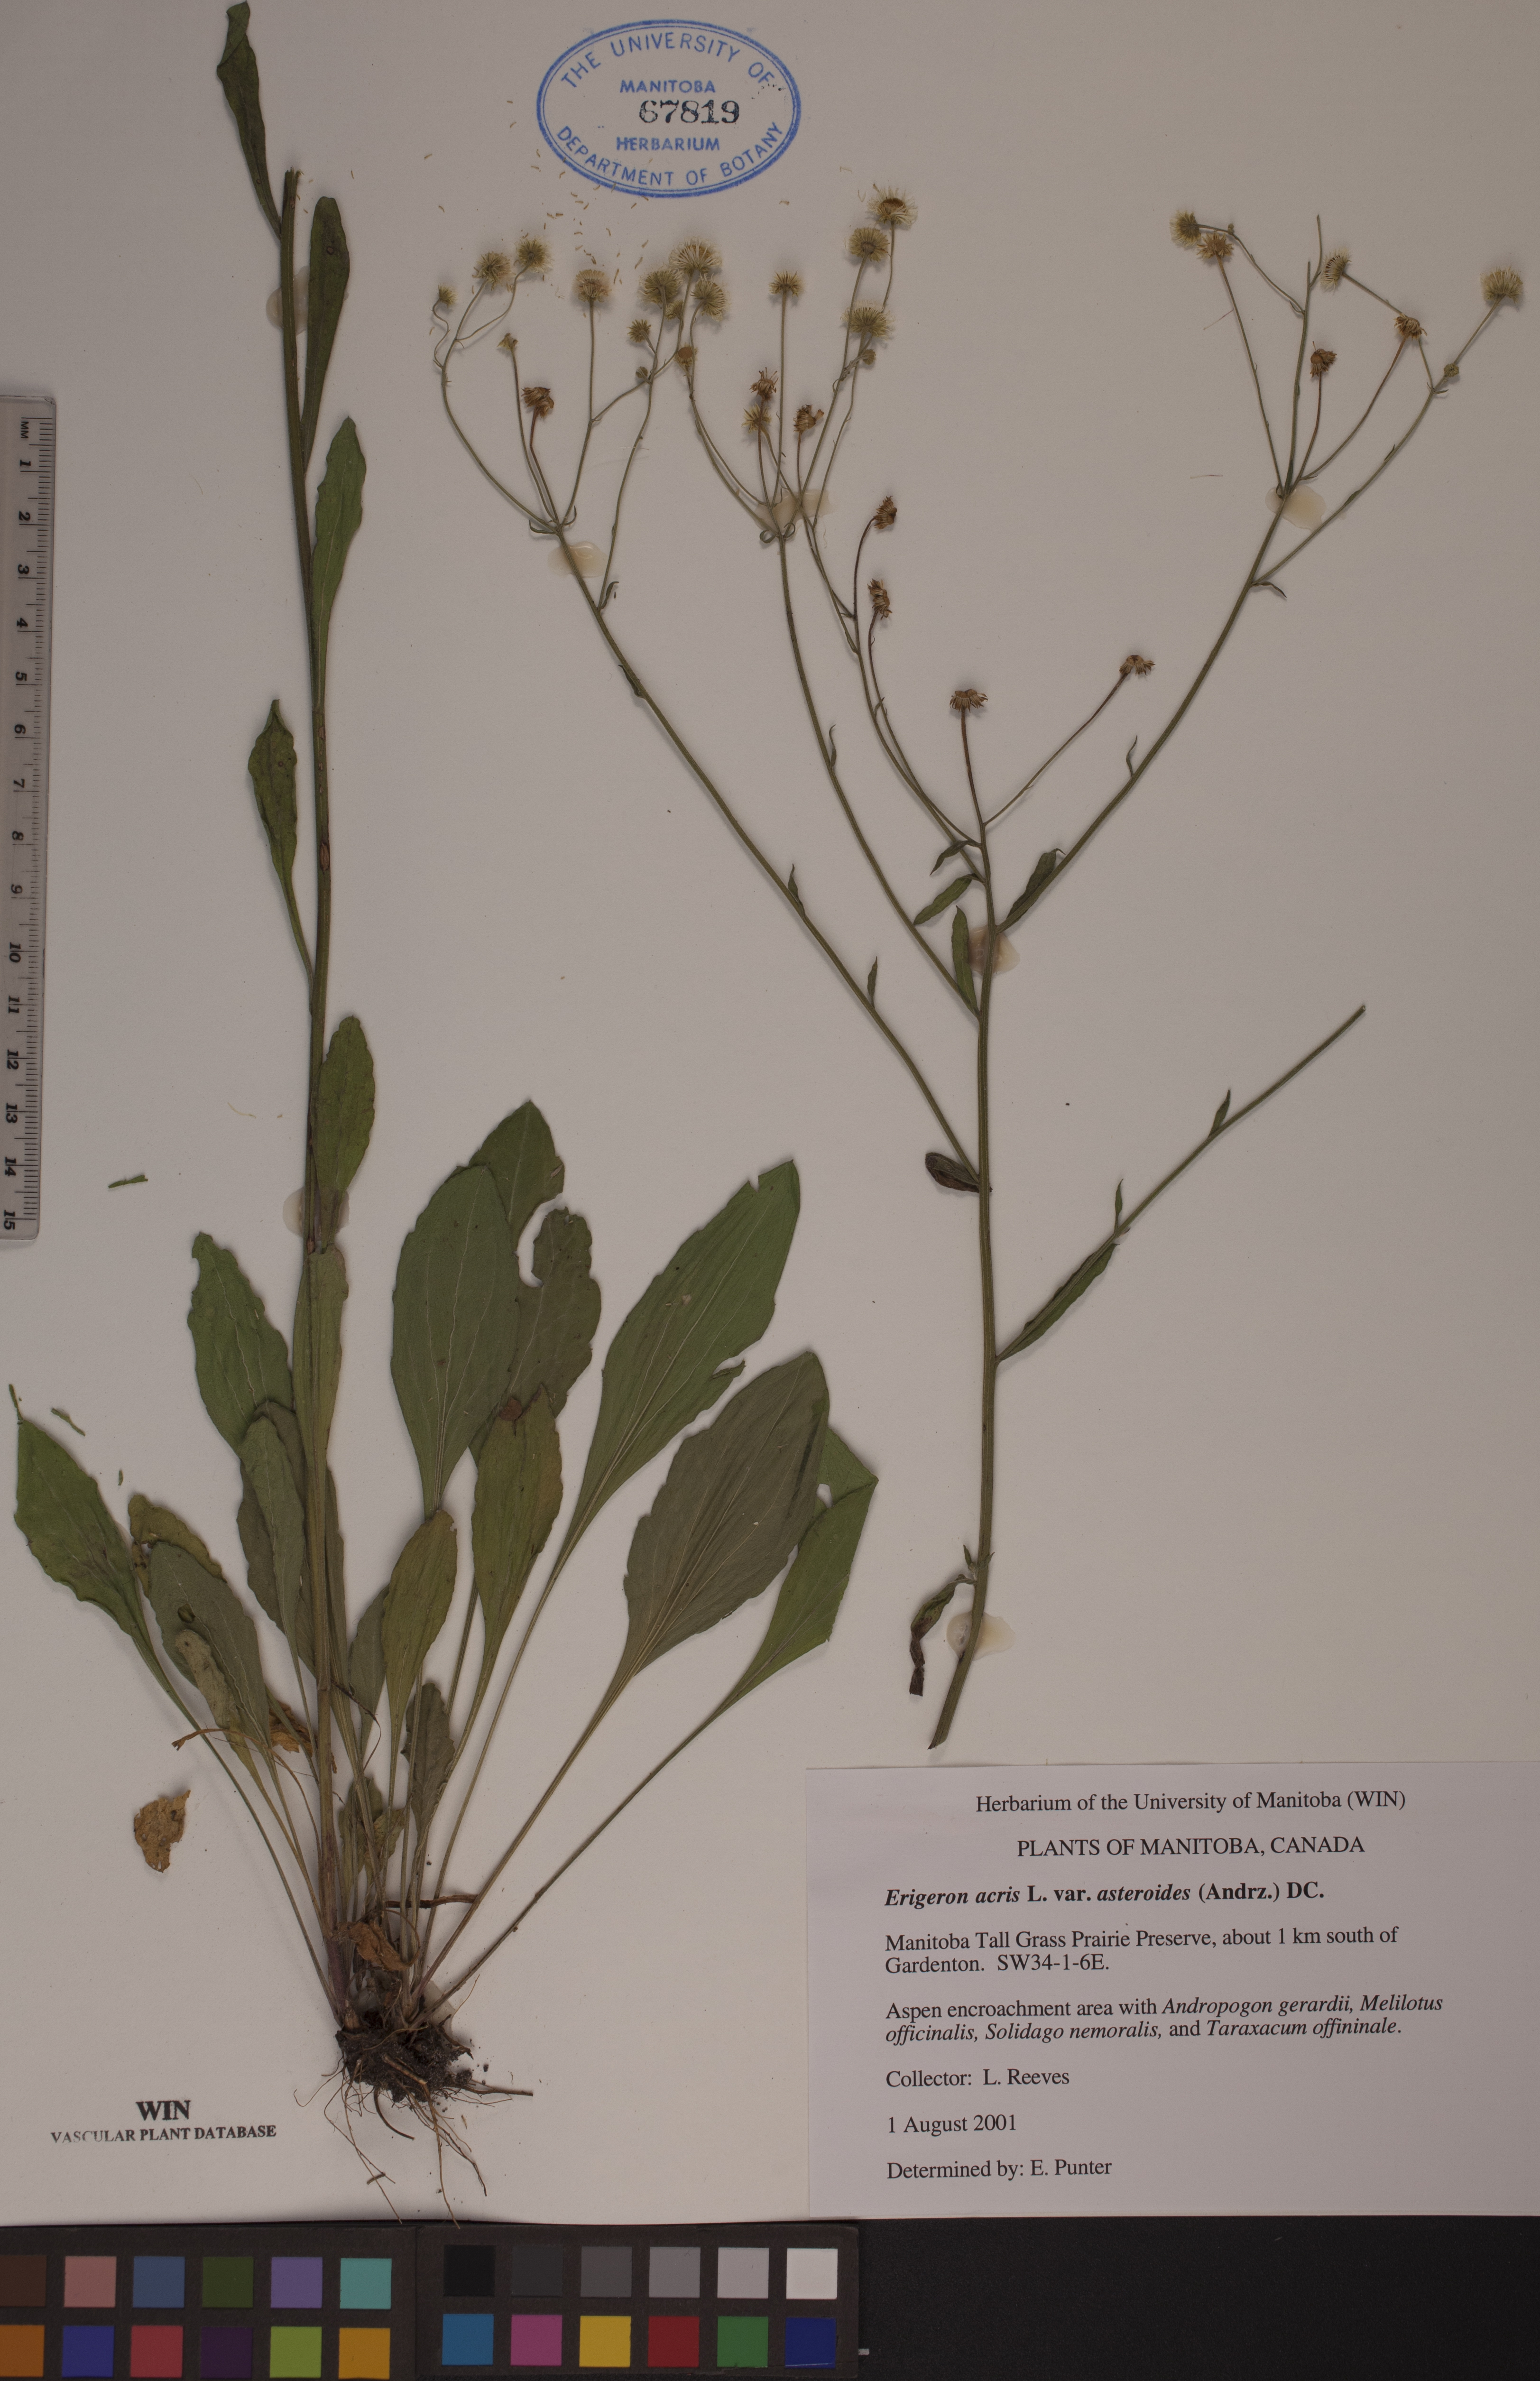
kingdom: Plantae
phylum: Tracheophyta
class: Magnoliopsida
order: Asterales
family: Asteraceae
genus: Erigeron
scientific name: Erigeron podolicus
